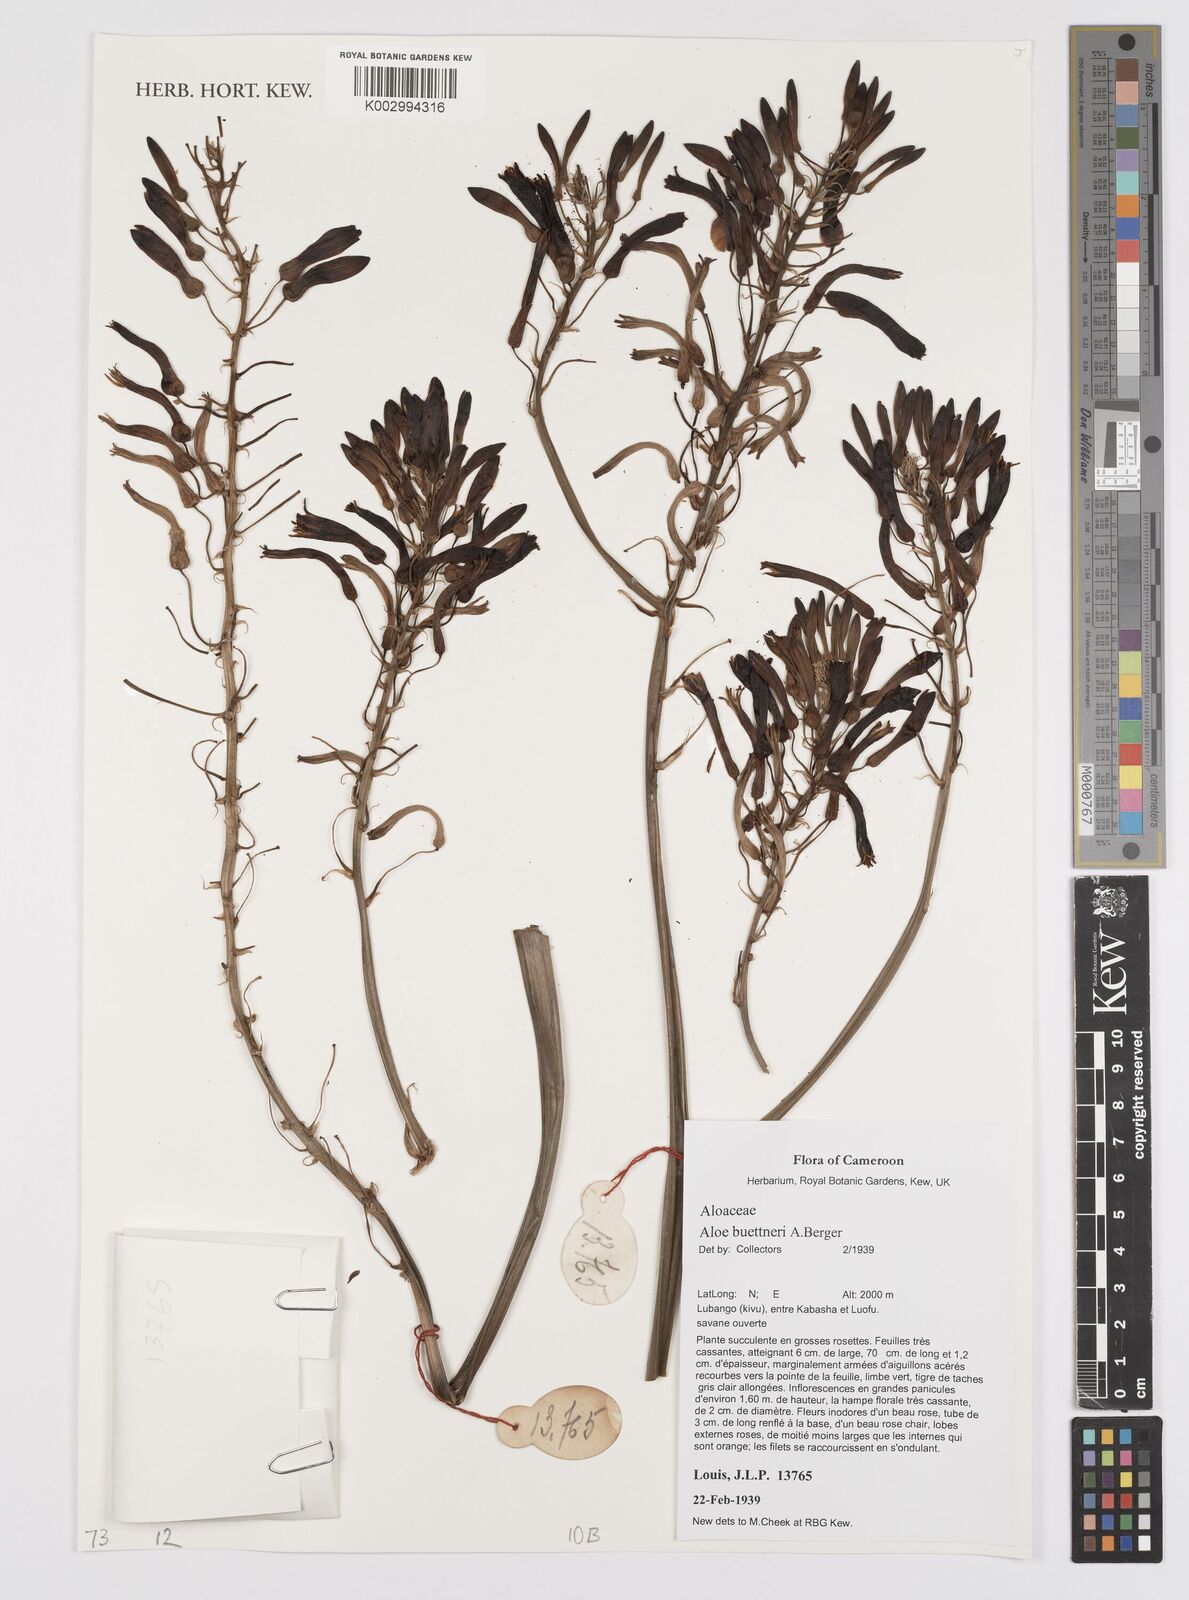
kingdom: Plantae
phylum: Tracheophyta
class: Liliopsida
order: Asparagales
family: Asphodelaceae
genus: Aloe
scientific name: Aloe buettneri
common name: West african aloe
